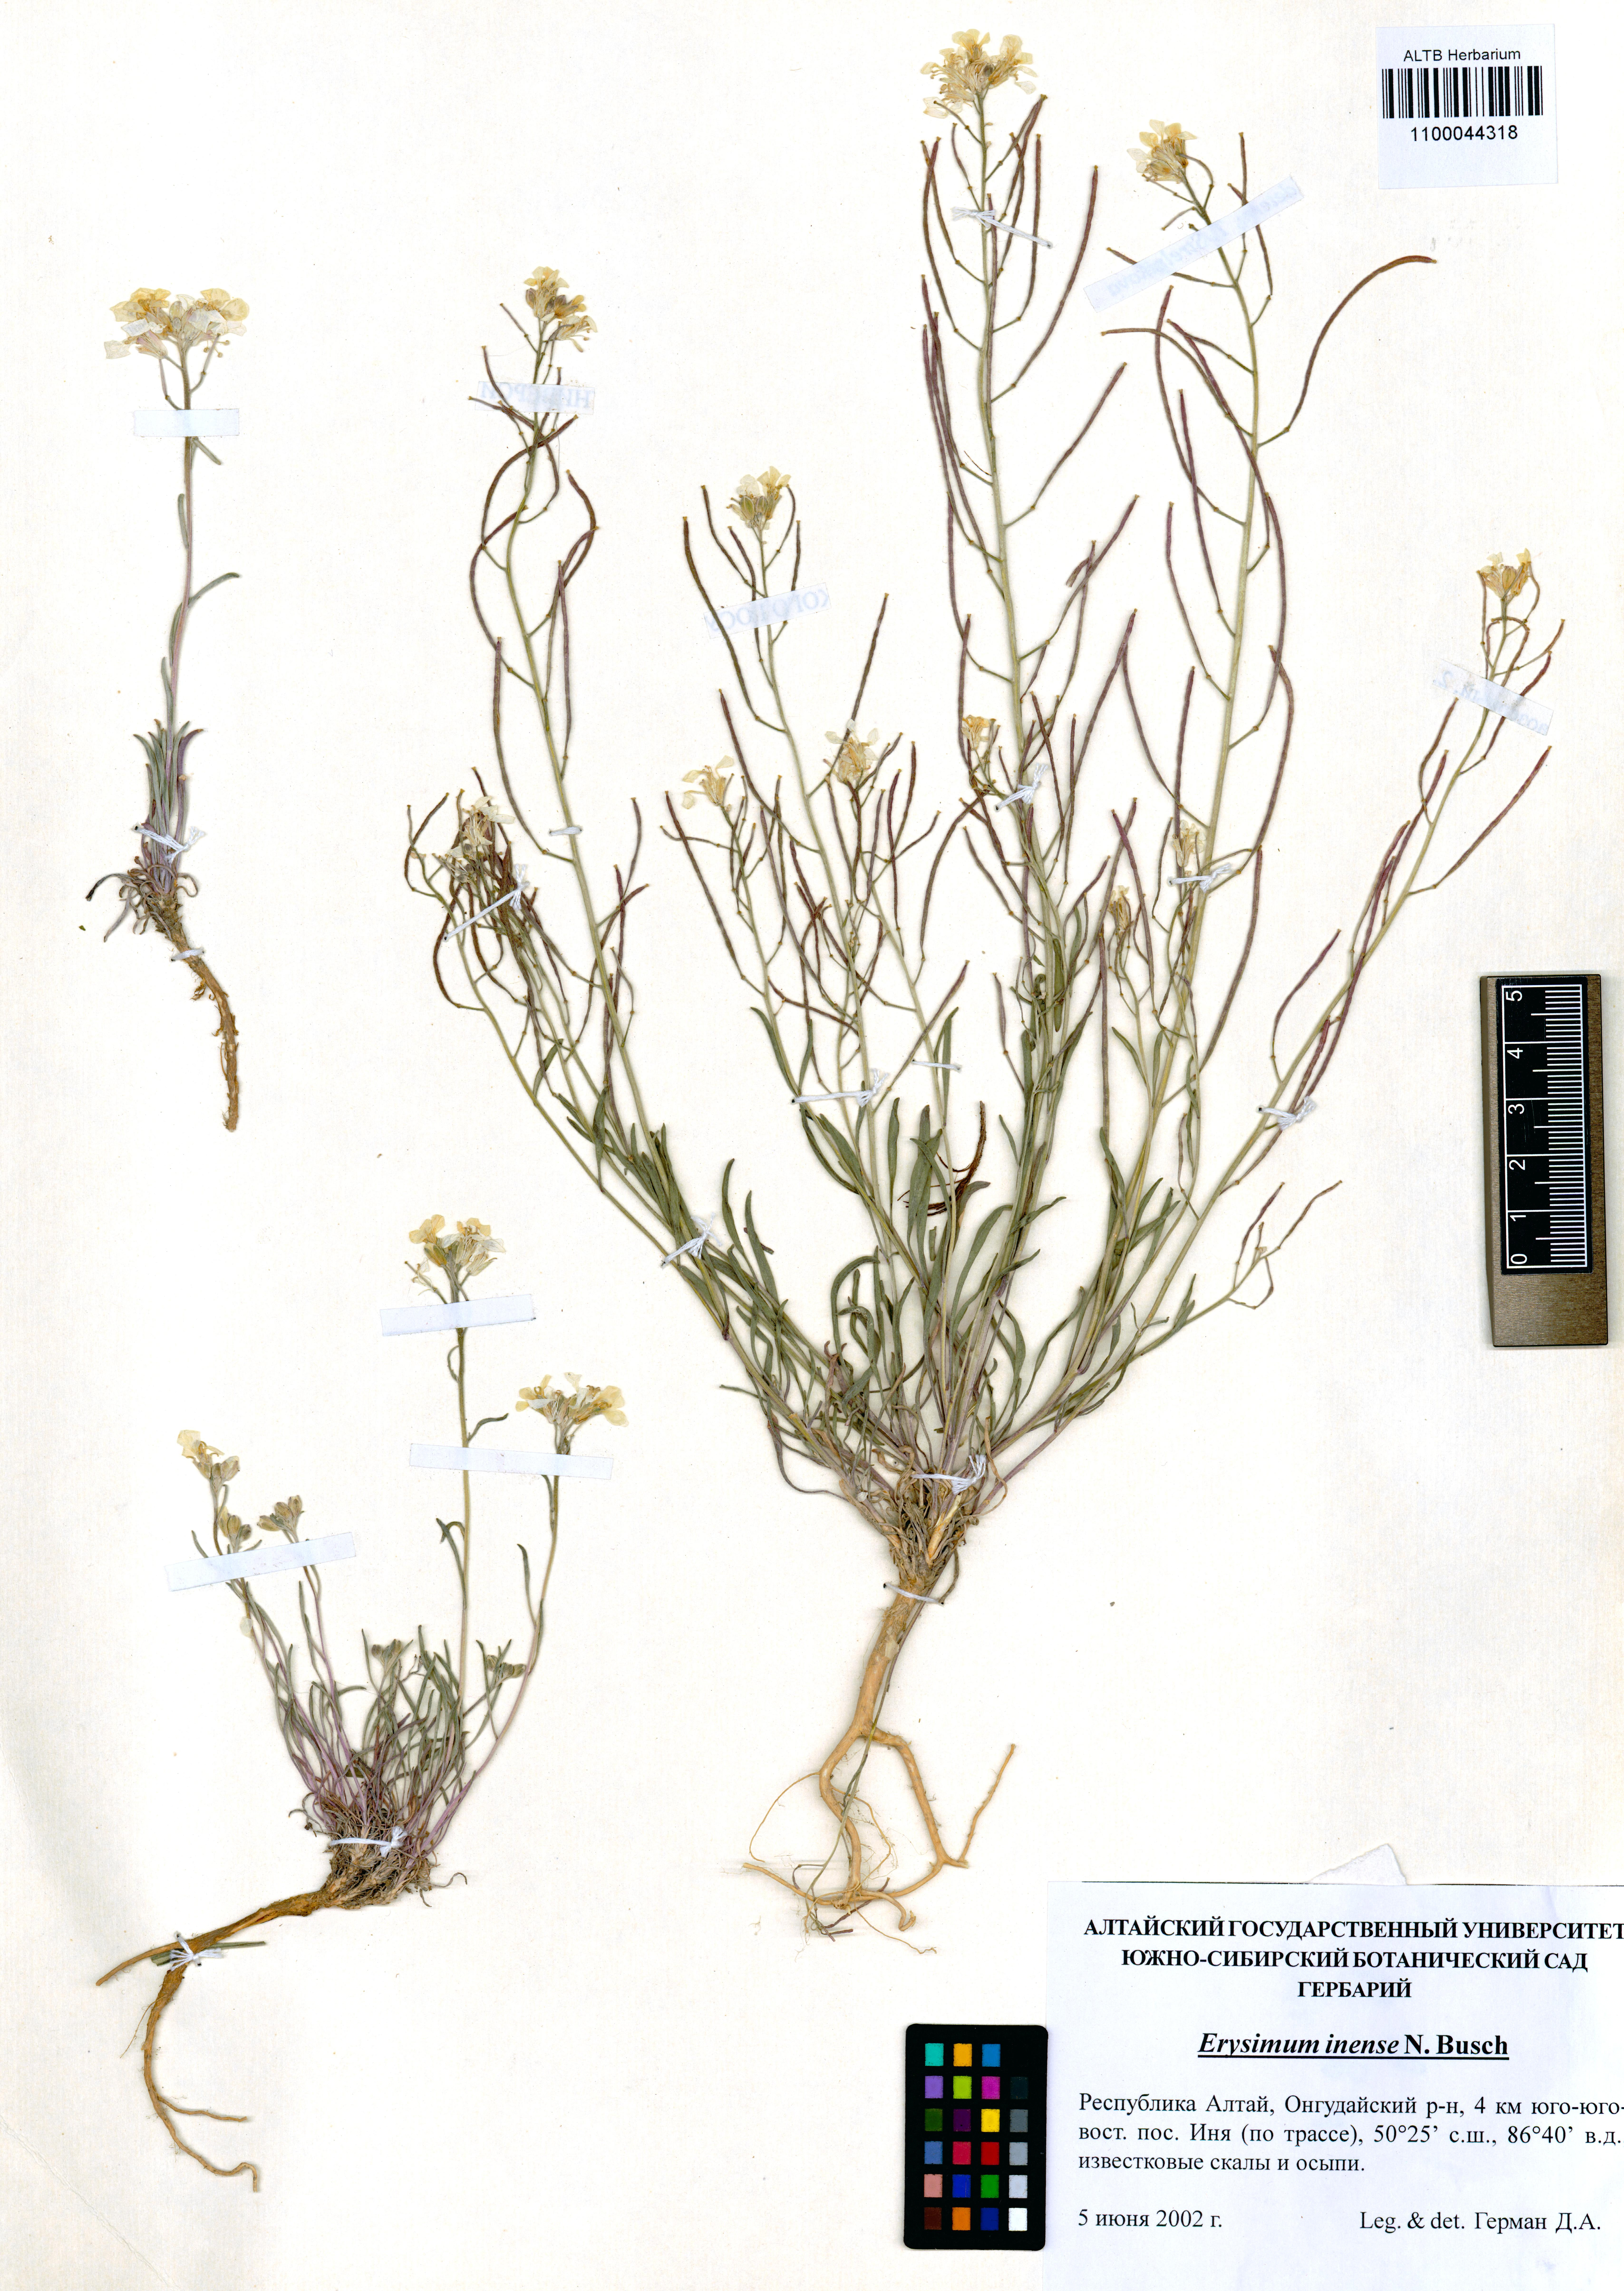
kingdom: Plantae
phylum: Tracheophyta
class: Magnoliopsida
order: Brassicales
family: Brassicaceae
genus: Erysimum
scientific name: Erysimum inense
